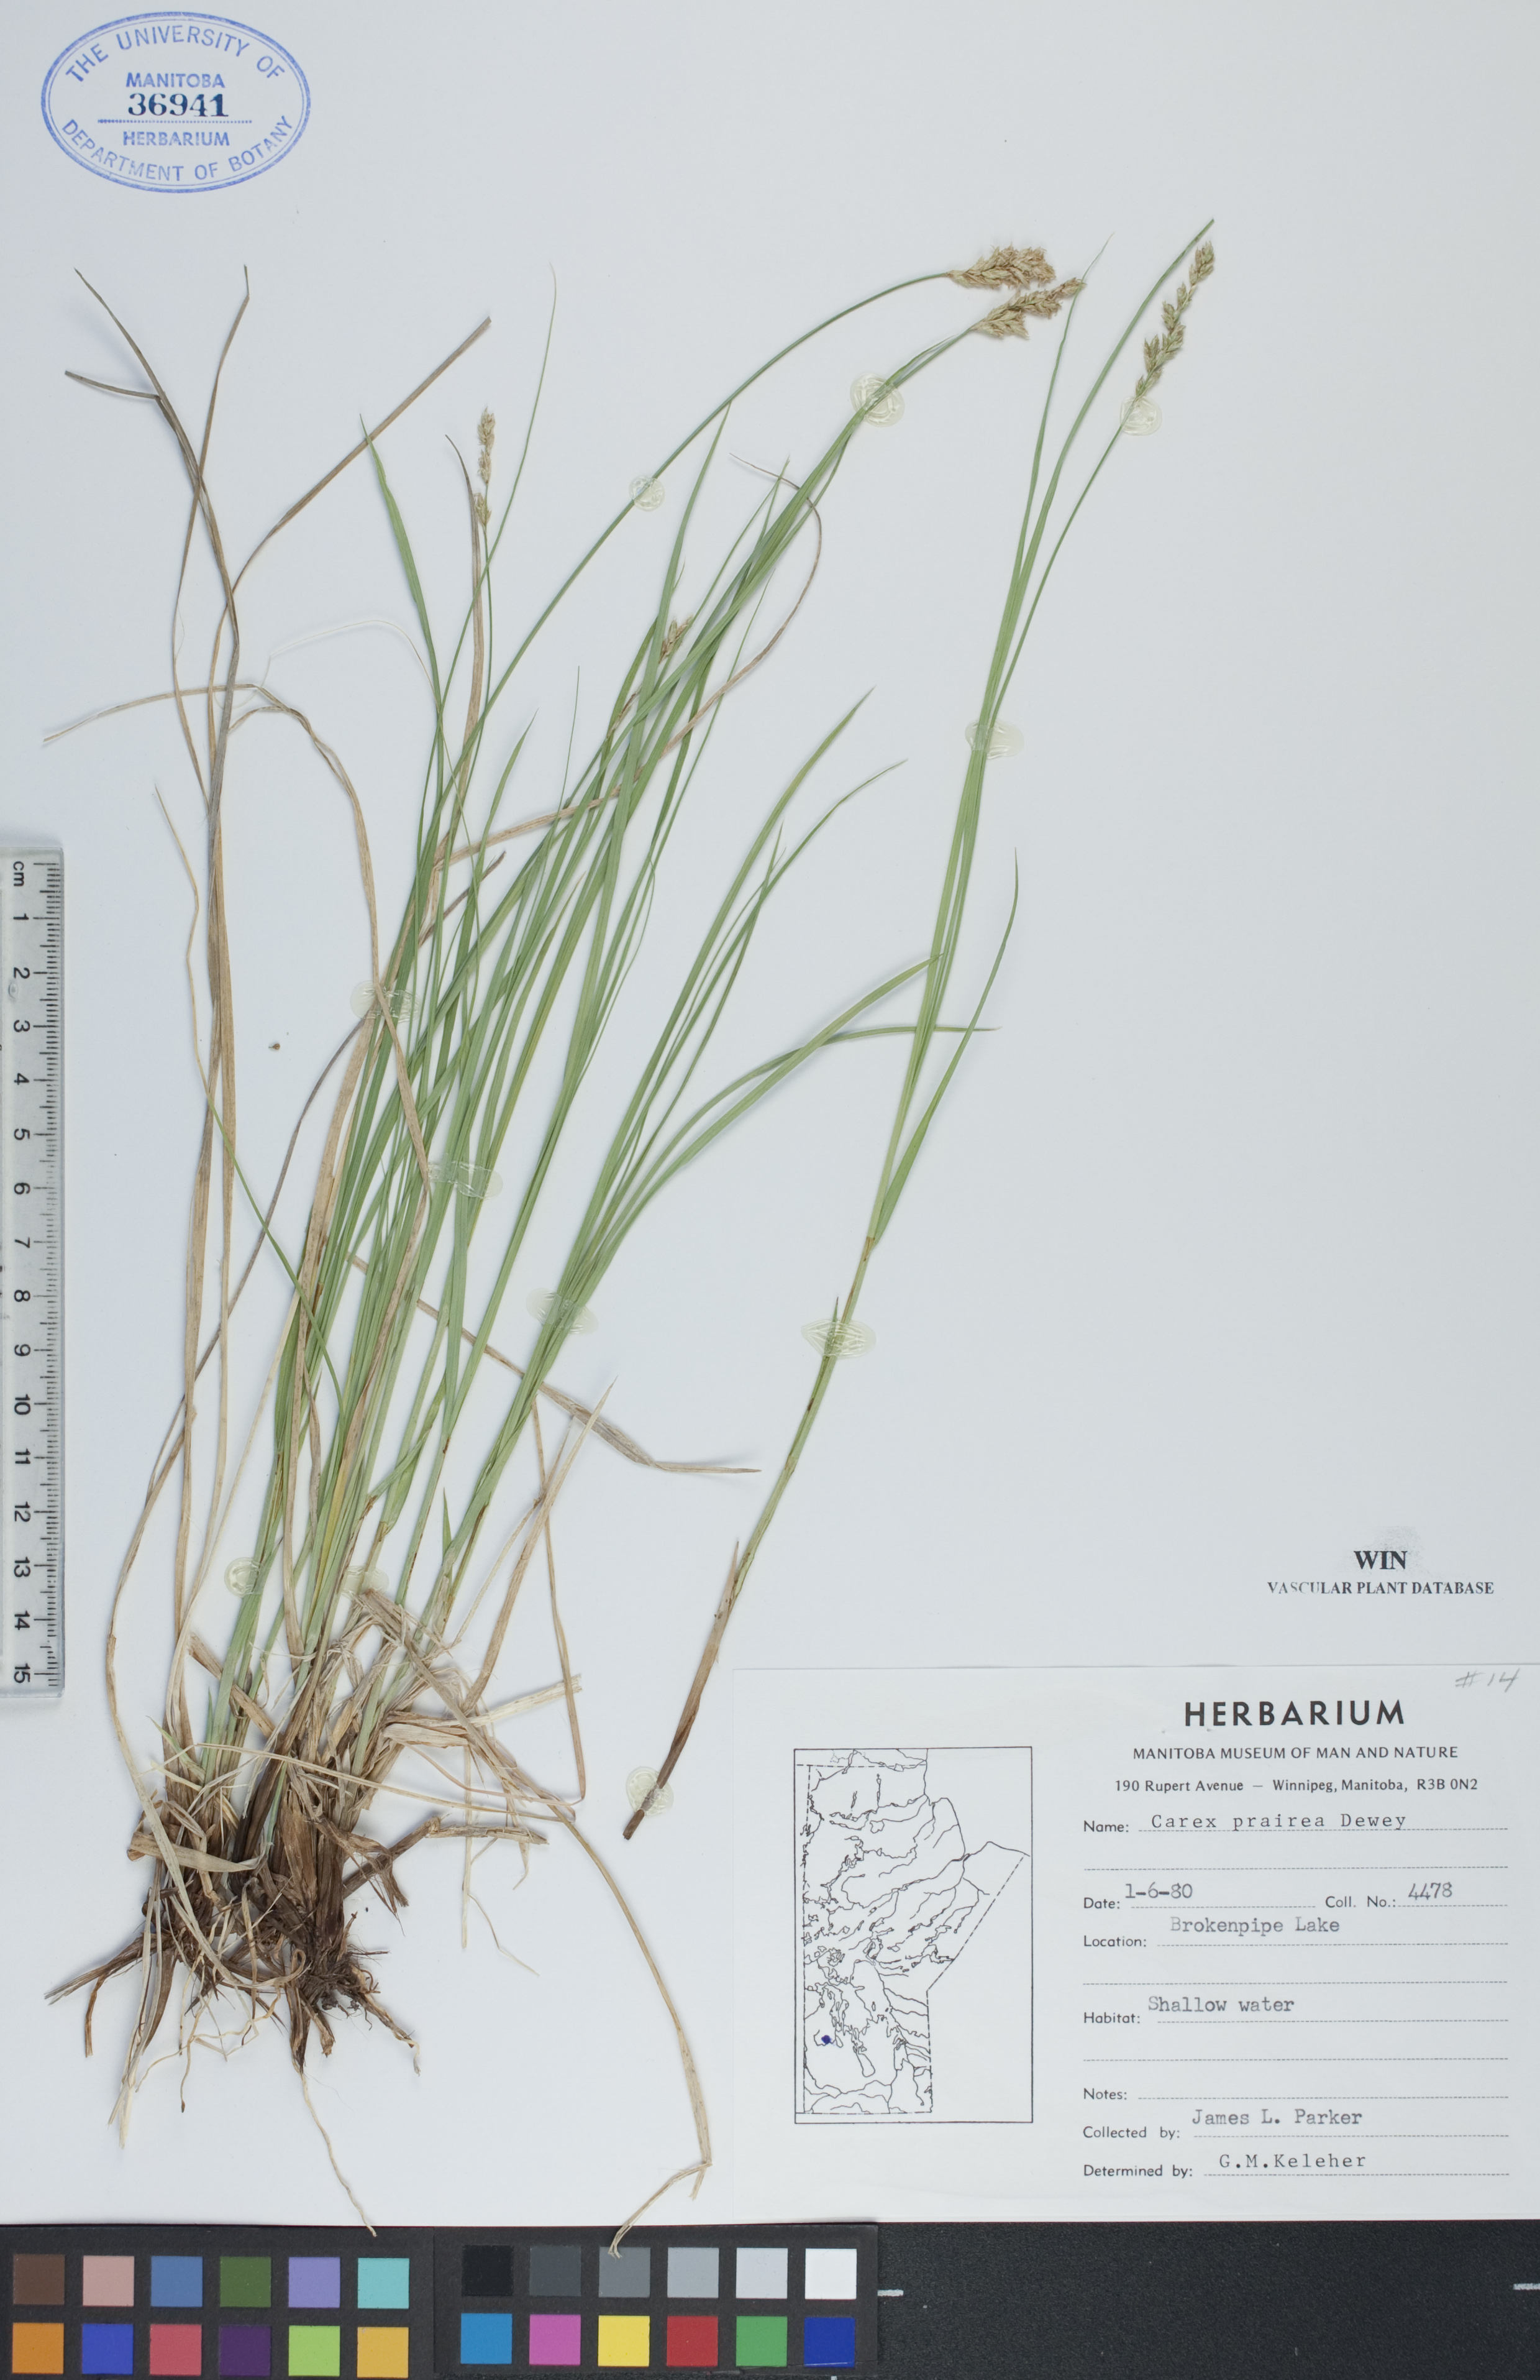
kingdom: Plantae
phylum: Tracheophyta
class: Liliopsida
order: Poales
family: Cyperaceae
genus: Carex
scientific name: Carex prairea
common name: Prairie sedge
